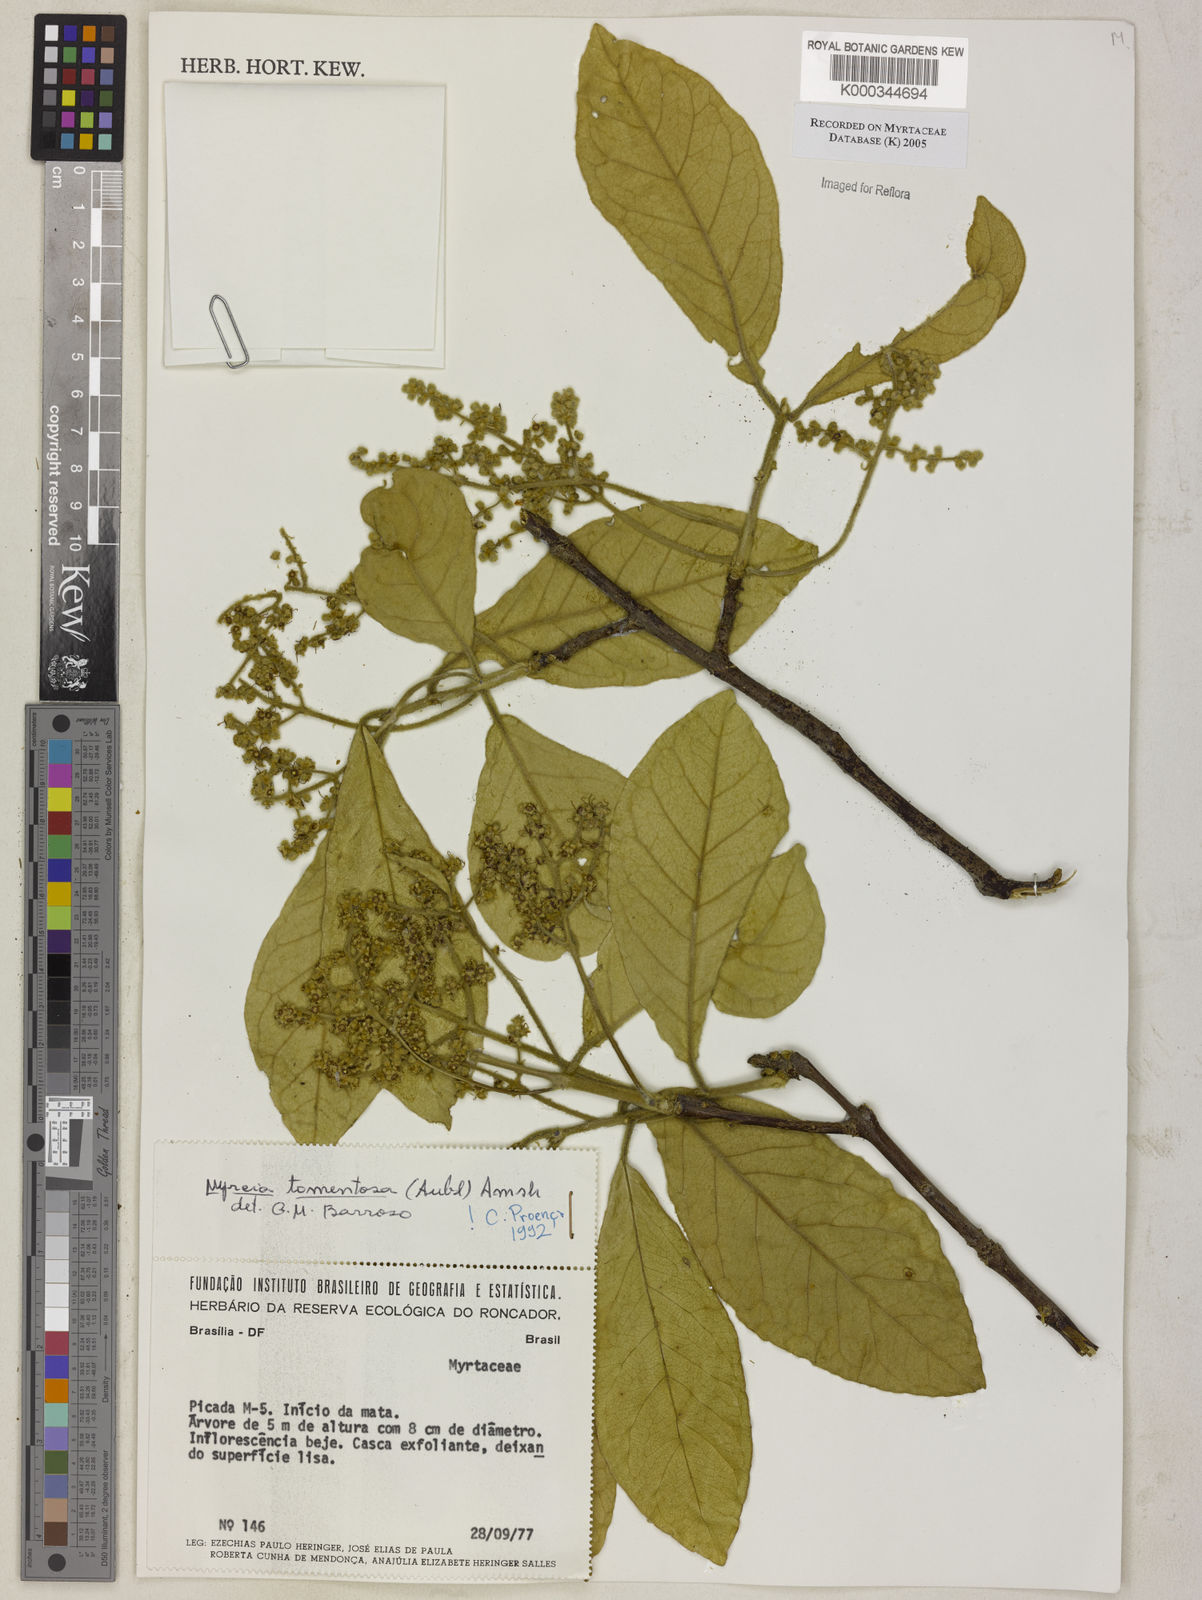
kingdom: Plantae
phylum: Tracheophyta
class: Magnoliopsida
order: Myrtales
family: Myrtaceae
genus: Myrcia
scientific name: Myrcia tomentosa
